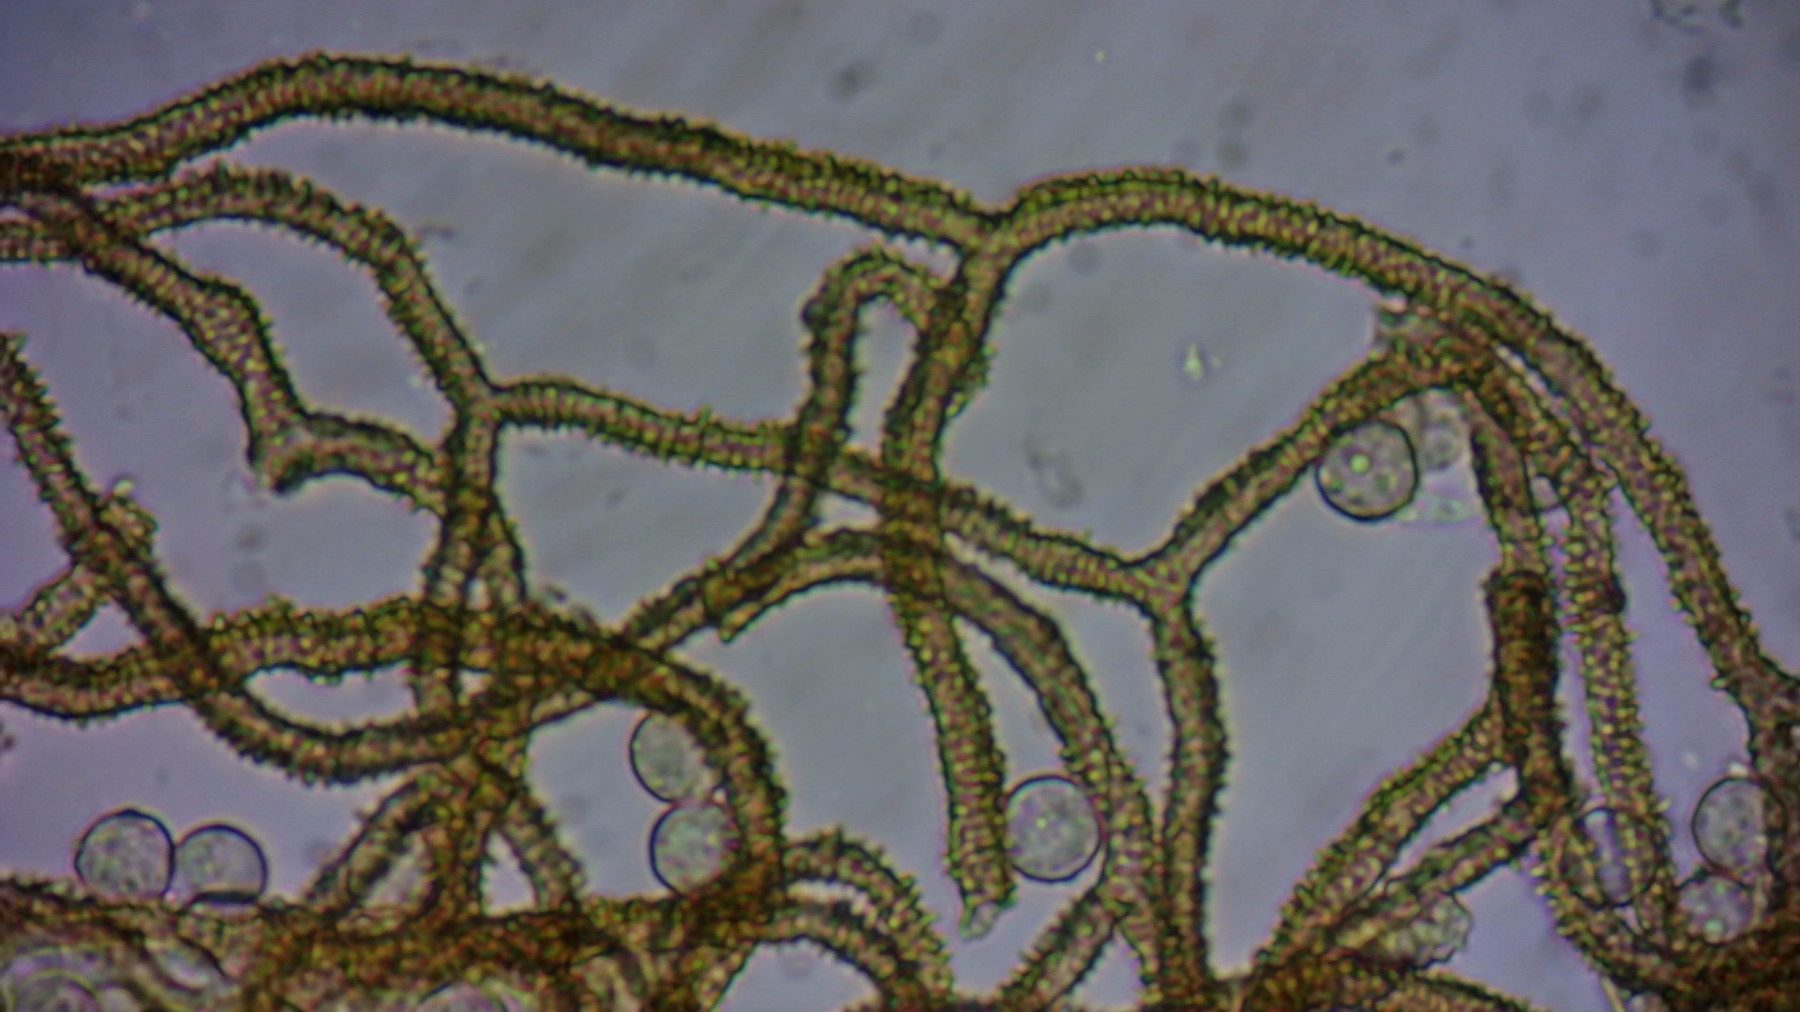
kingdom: Protozoa
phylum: Mycetozoa
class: Myxomycetes
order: Trichiales
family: Arcyriaceae
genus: Arcyria
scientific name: Arcyria pomiformis
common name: Golden apple slime mold
